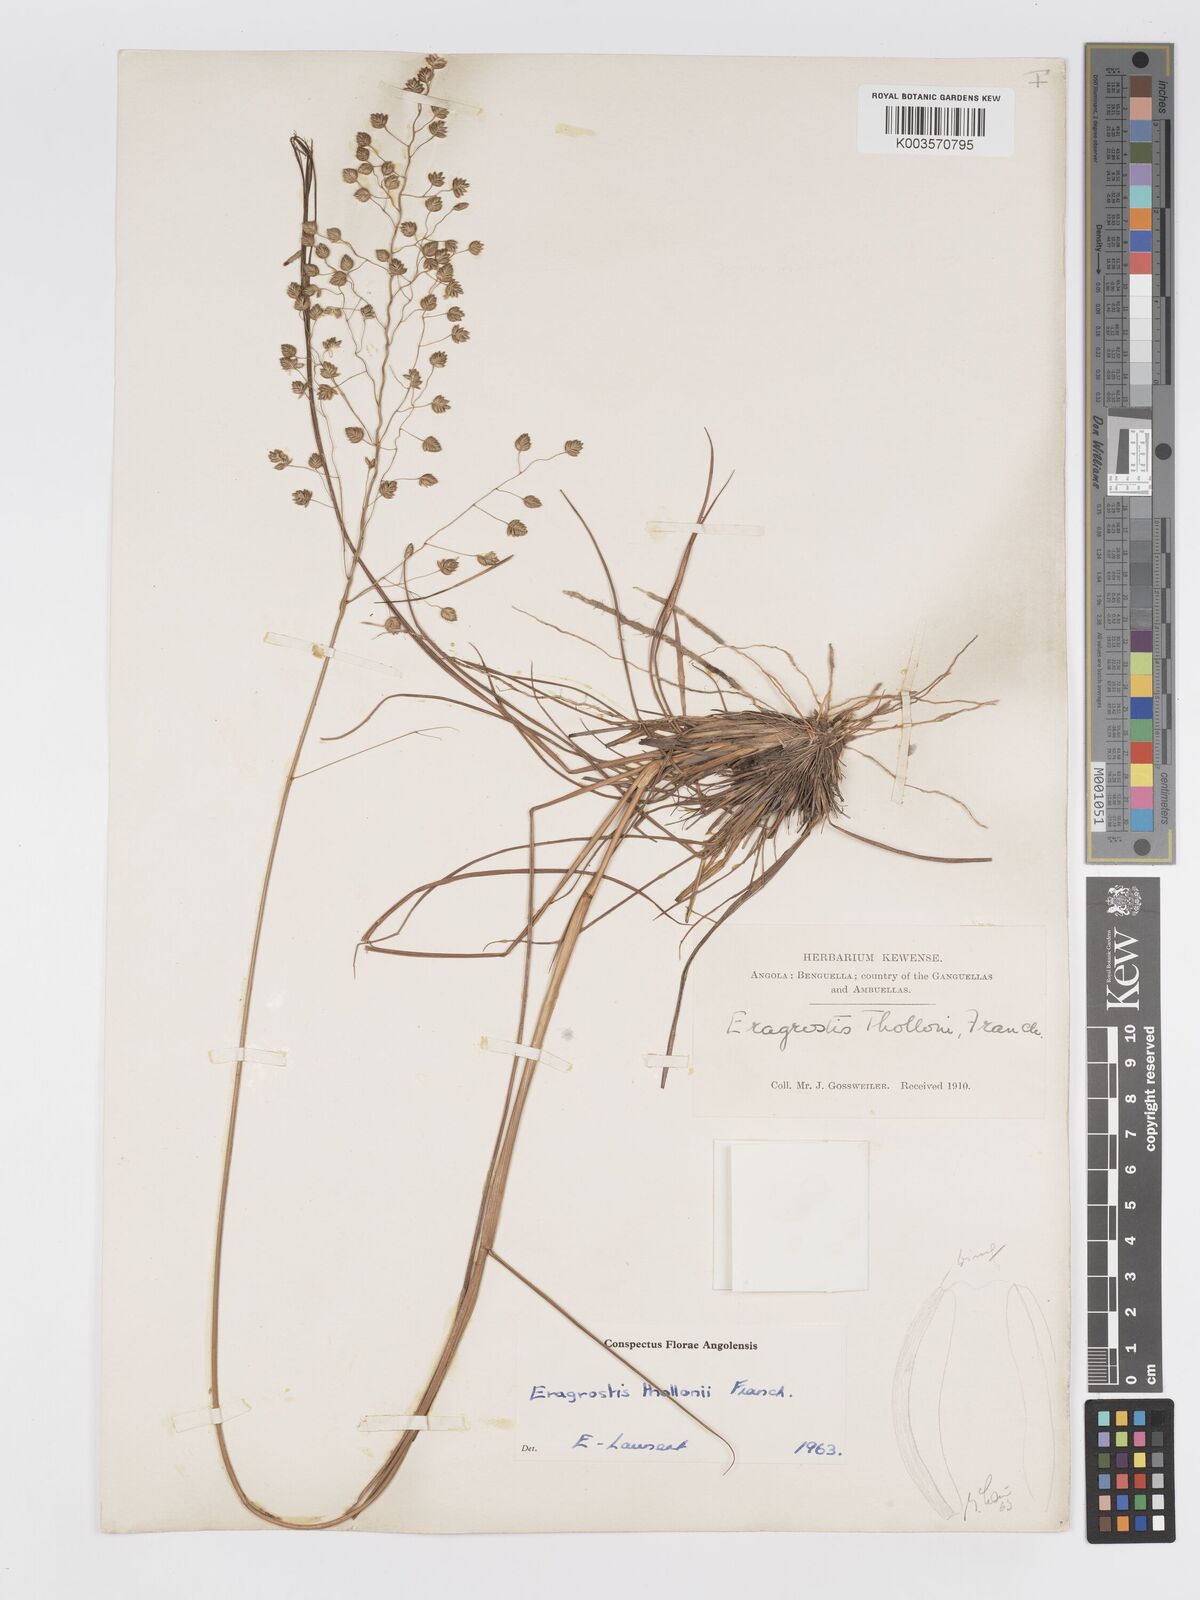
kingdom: Plantae
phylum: Tracheophyta
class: Liliopsida
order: Poales
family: Poaceae
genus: Eragrostis
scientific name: Eragrostis thollonii
